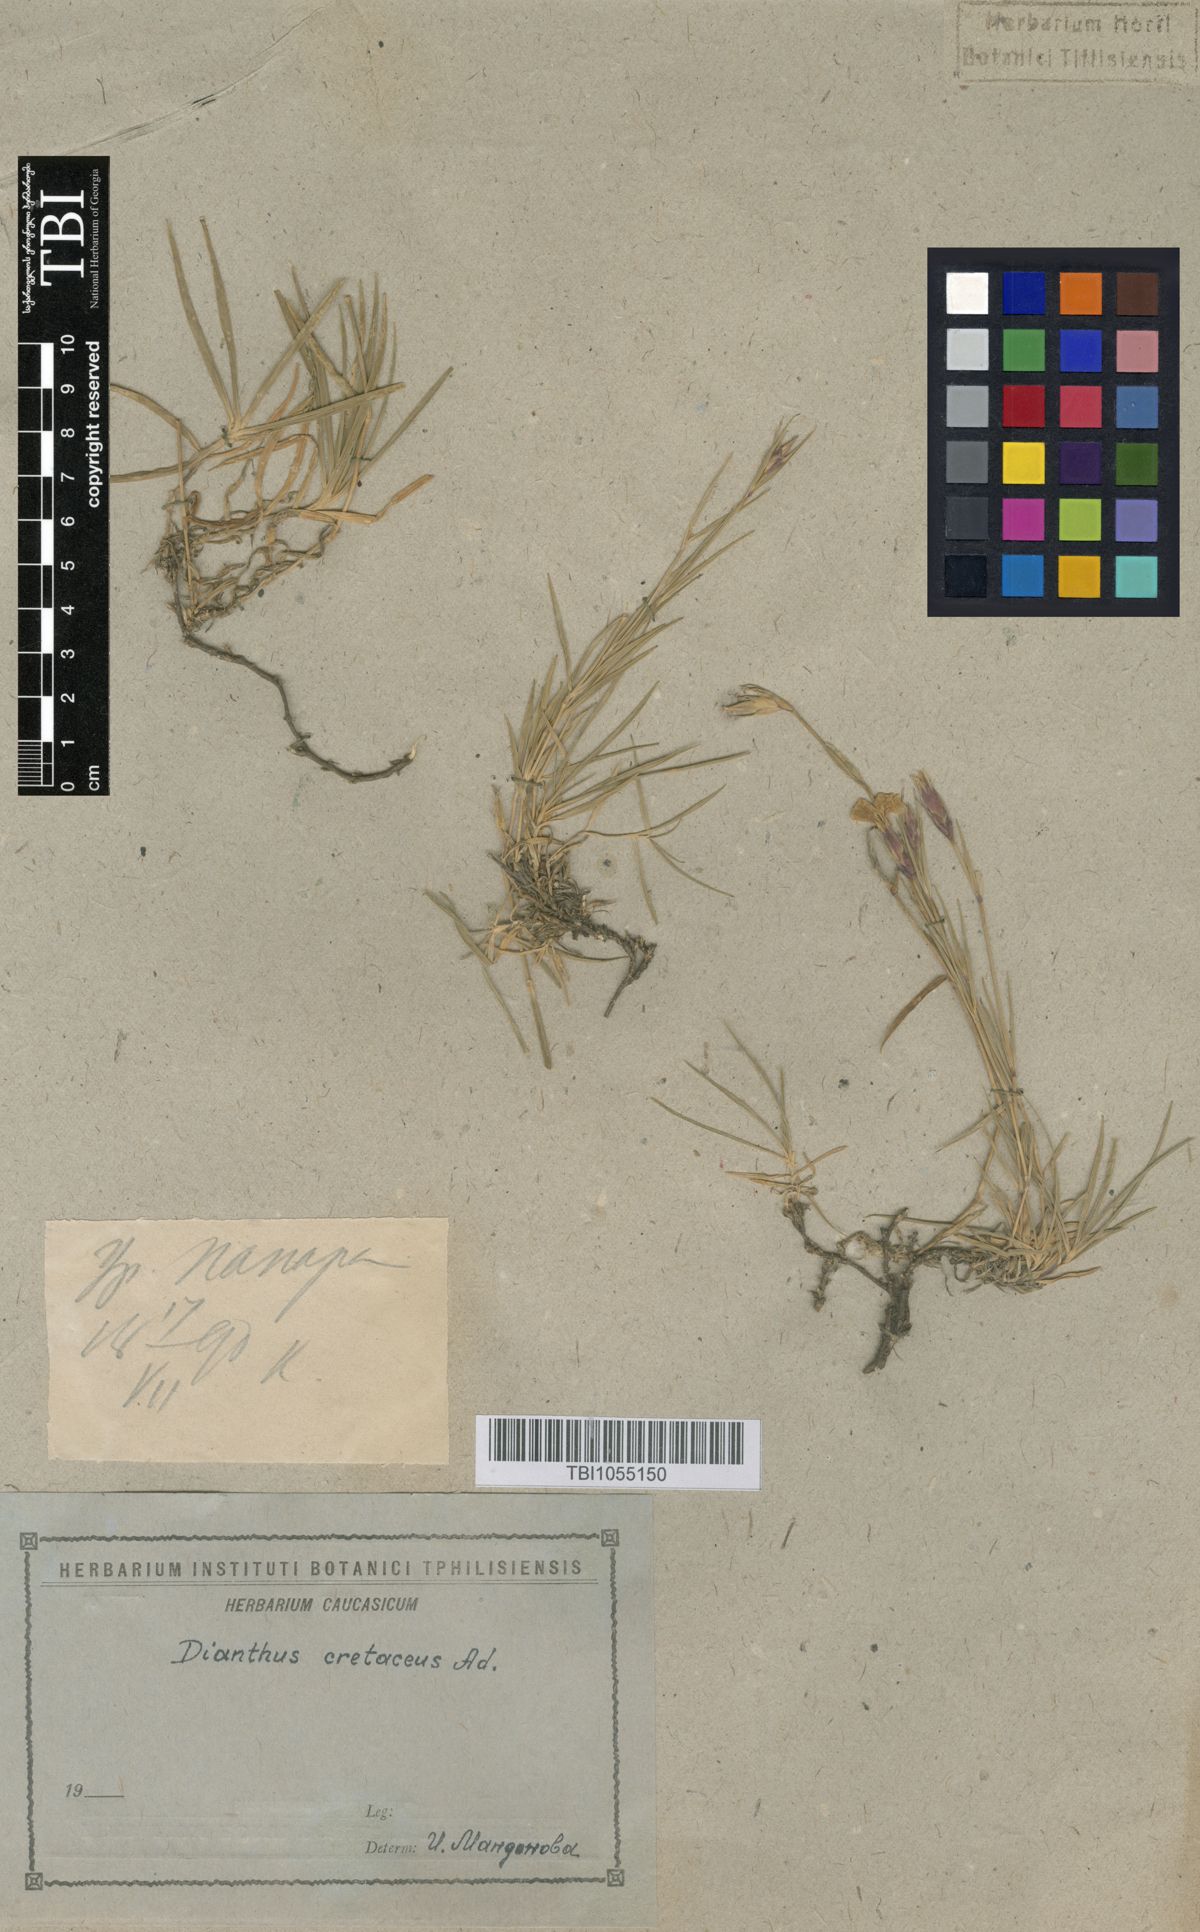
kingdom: Plantae
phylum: Tracheophyta
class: Magnoliopsida
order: Caryophyllales
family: Caryophyllaceae
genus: Dianthus
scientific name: Dianthus cretaceus
